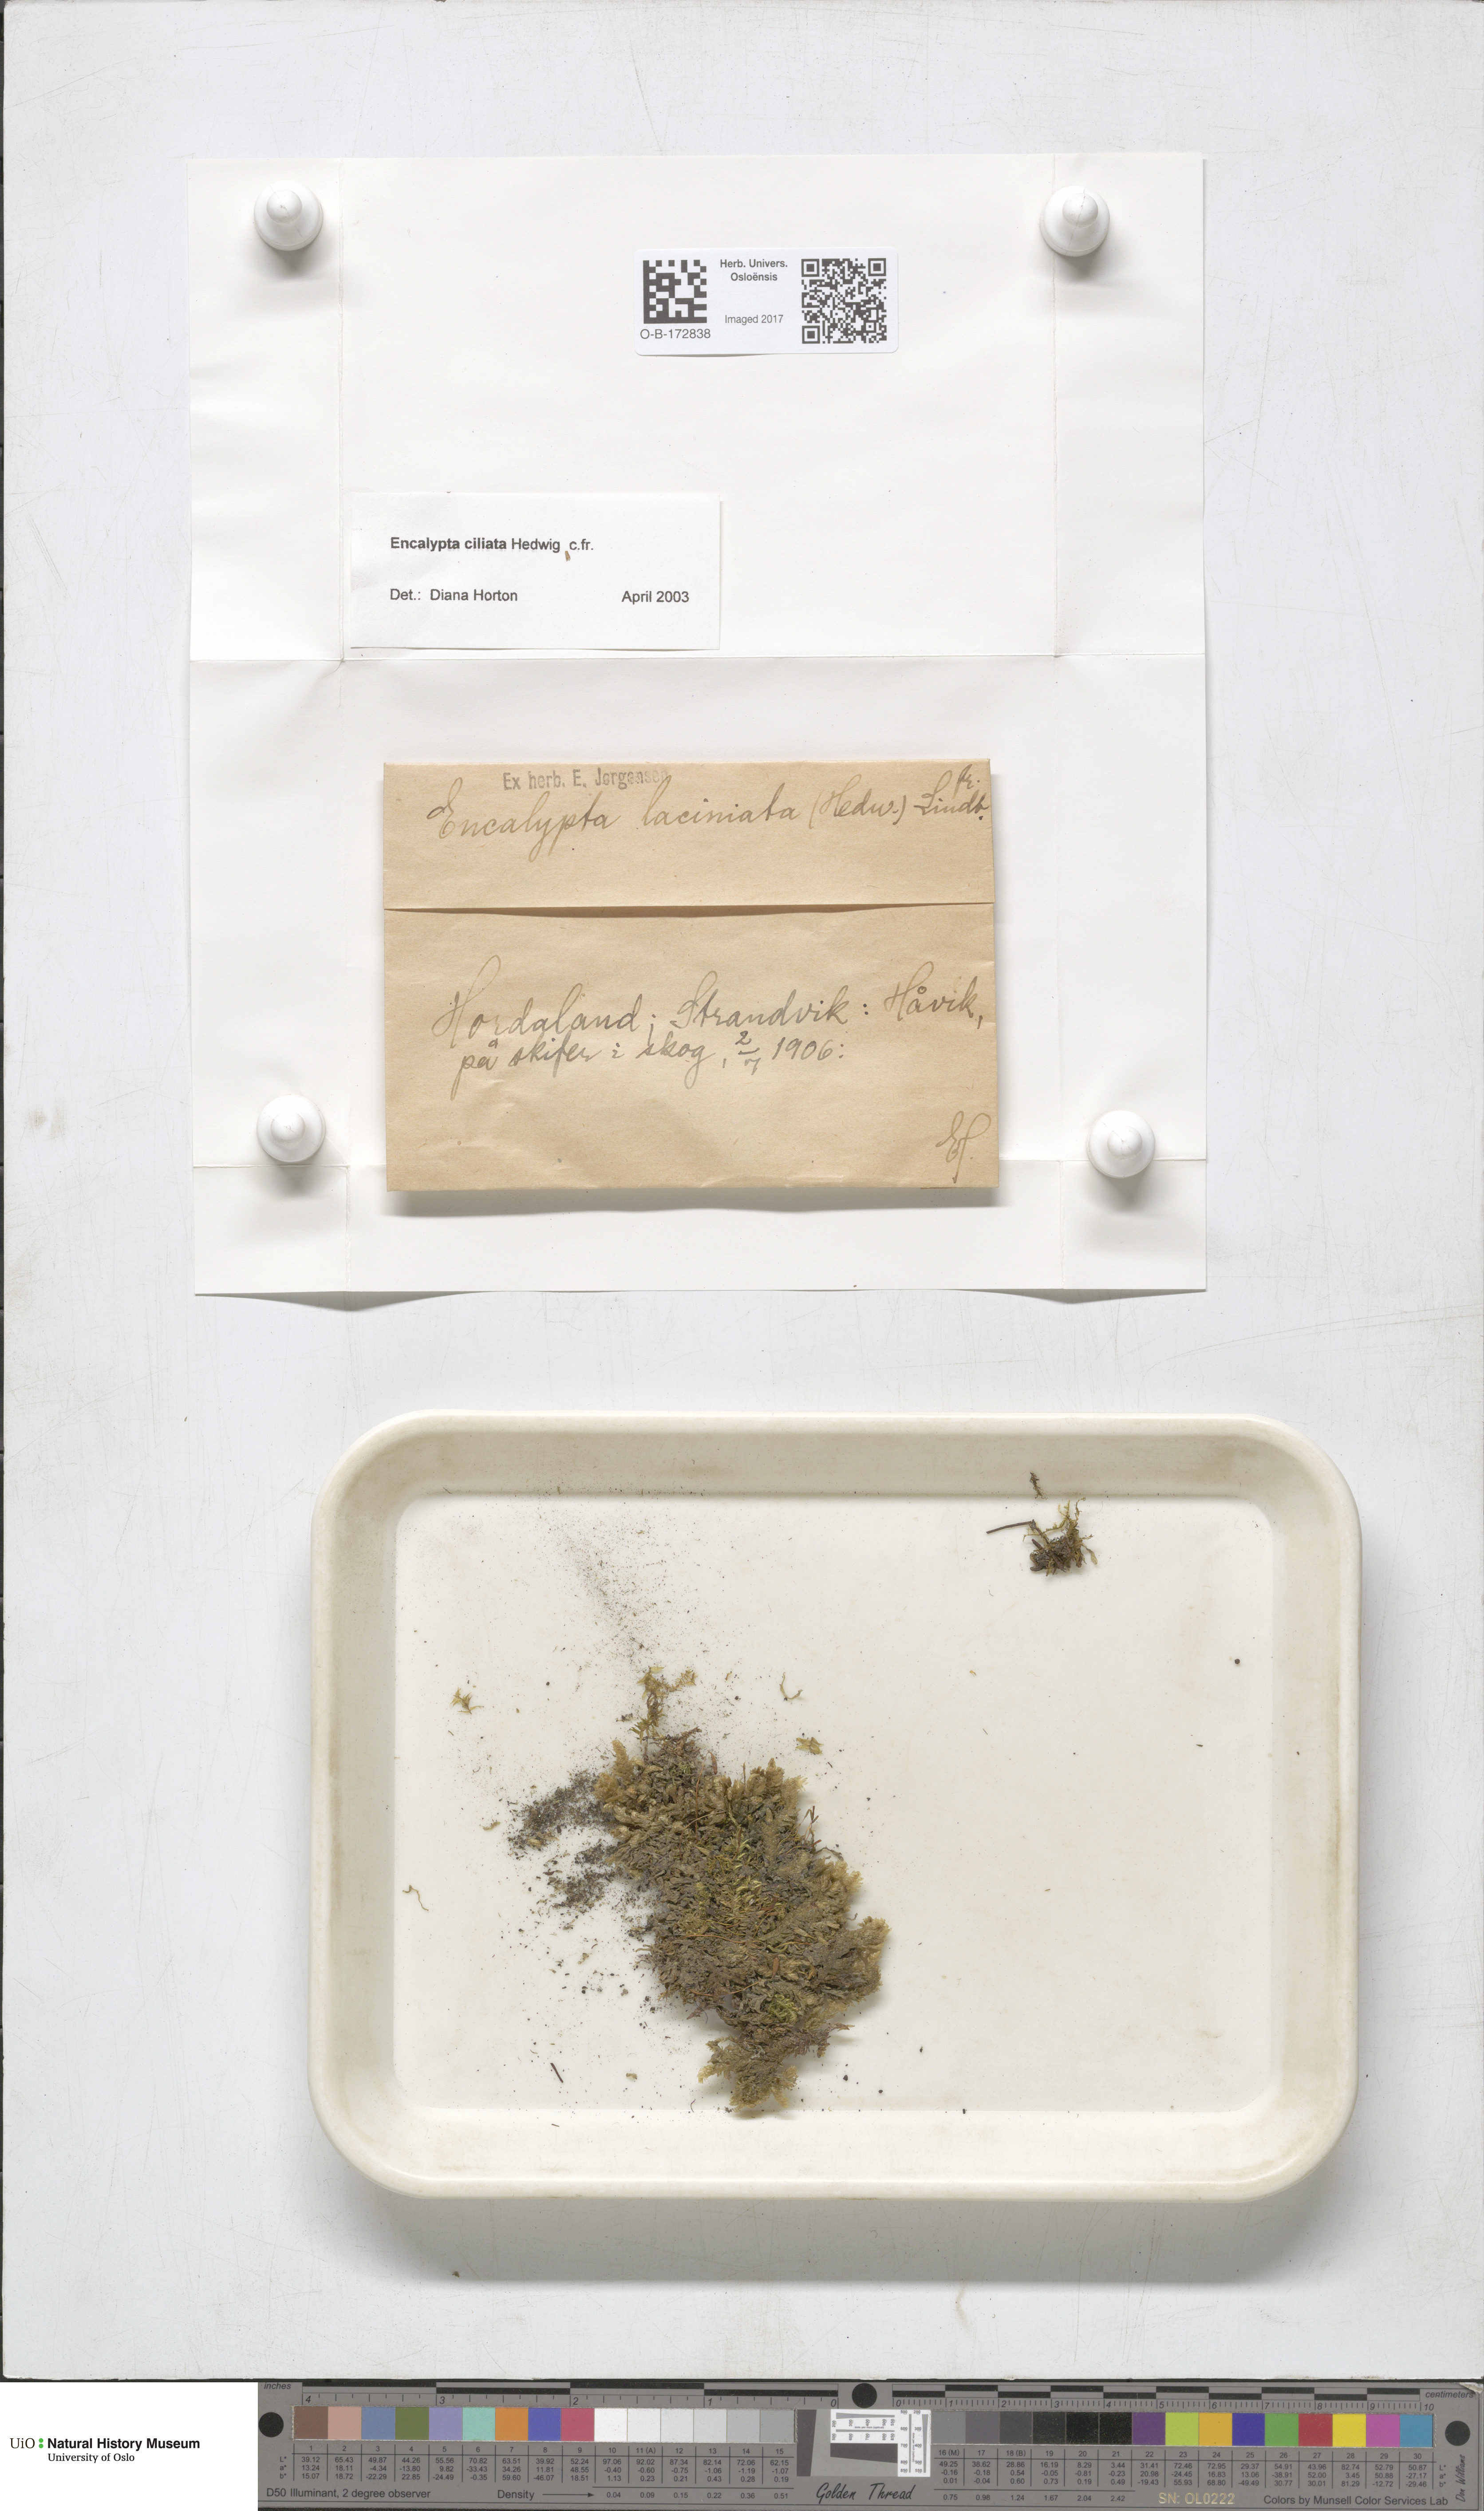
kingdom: Plantae
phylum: Bryophyta
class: Bryopsida
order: Encalyptales
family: Encalyptaceae
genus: Encalypta
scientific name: Encalypta ciliata
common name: Fringed extinguisher-moss
